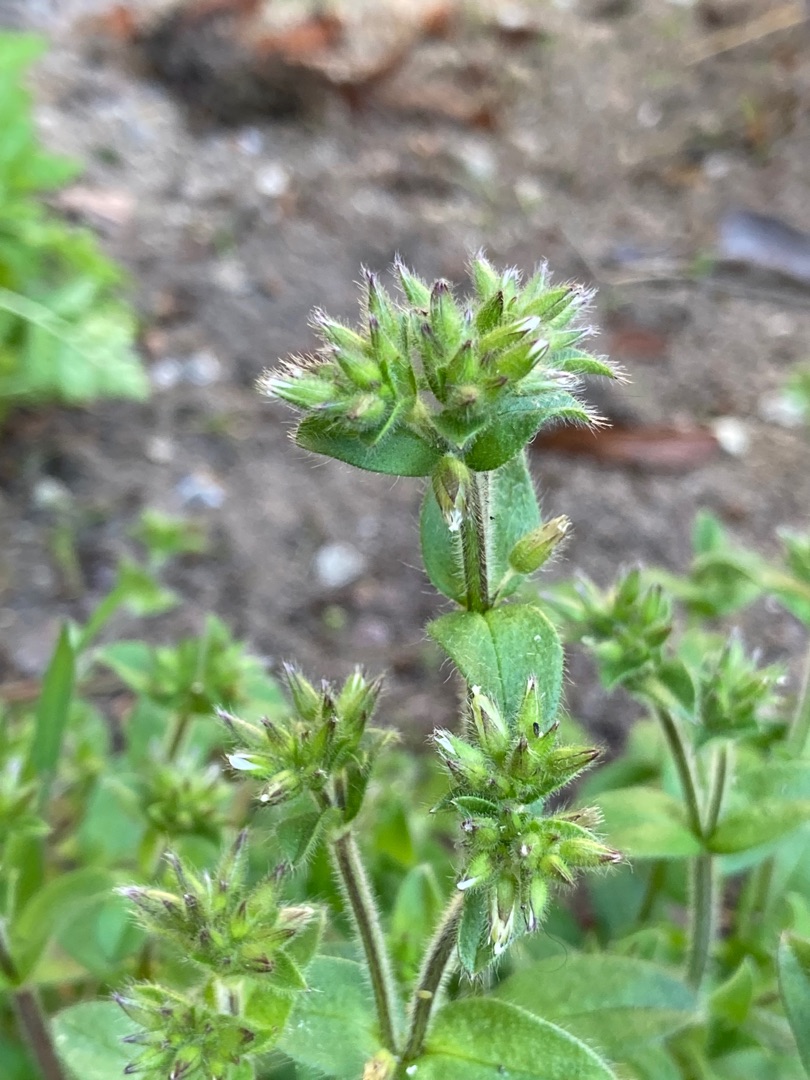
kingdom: Plantae
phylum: Tracheophyta
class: Magnoliopsida
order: Caryophyllales
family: Caryophyllaceae
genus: Cerastium
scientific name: Cerastium glomeratum
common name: Opret hønsetarm
